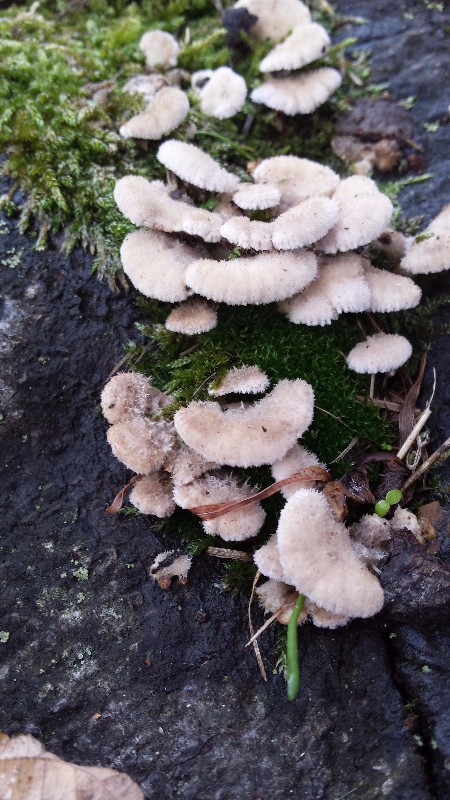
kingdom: Fungi
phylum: Basidiomycota
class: Agaricomycetes
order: Agaricales
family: Schizophyllaceae
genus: Schizophyllum
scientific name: Schizophyllum commune
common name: kløvblad
